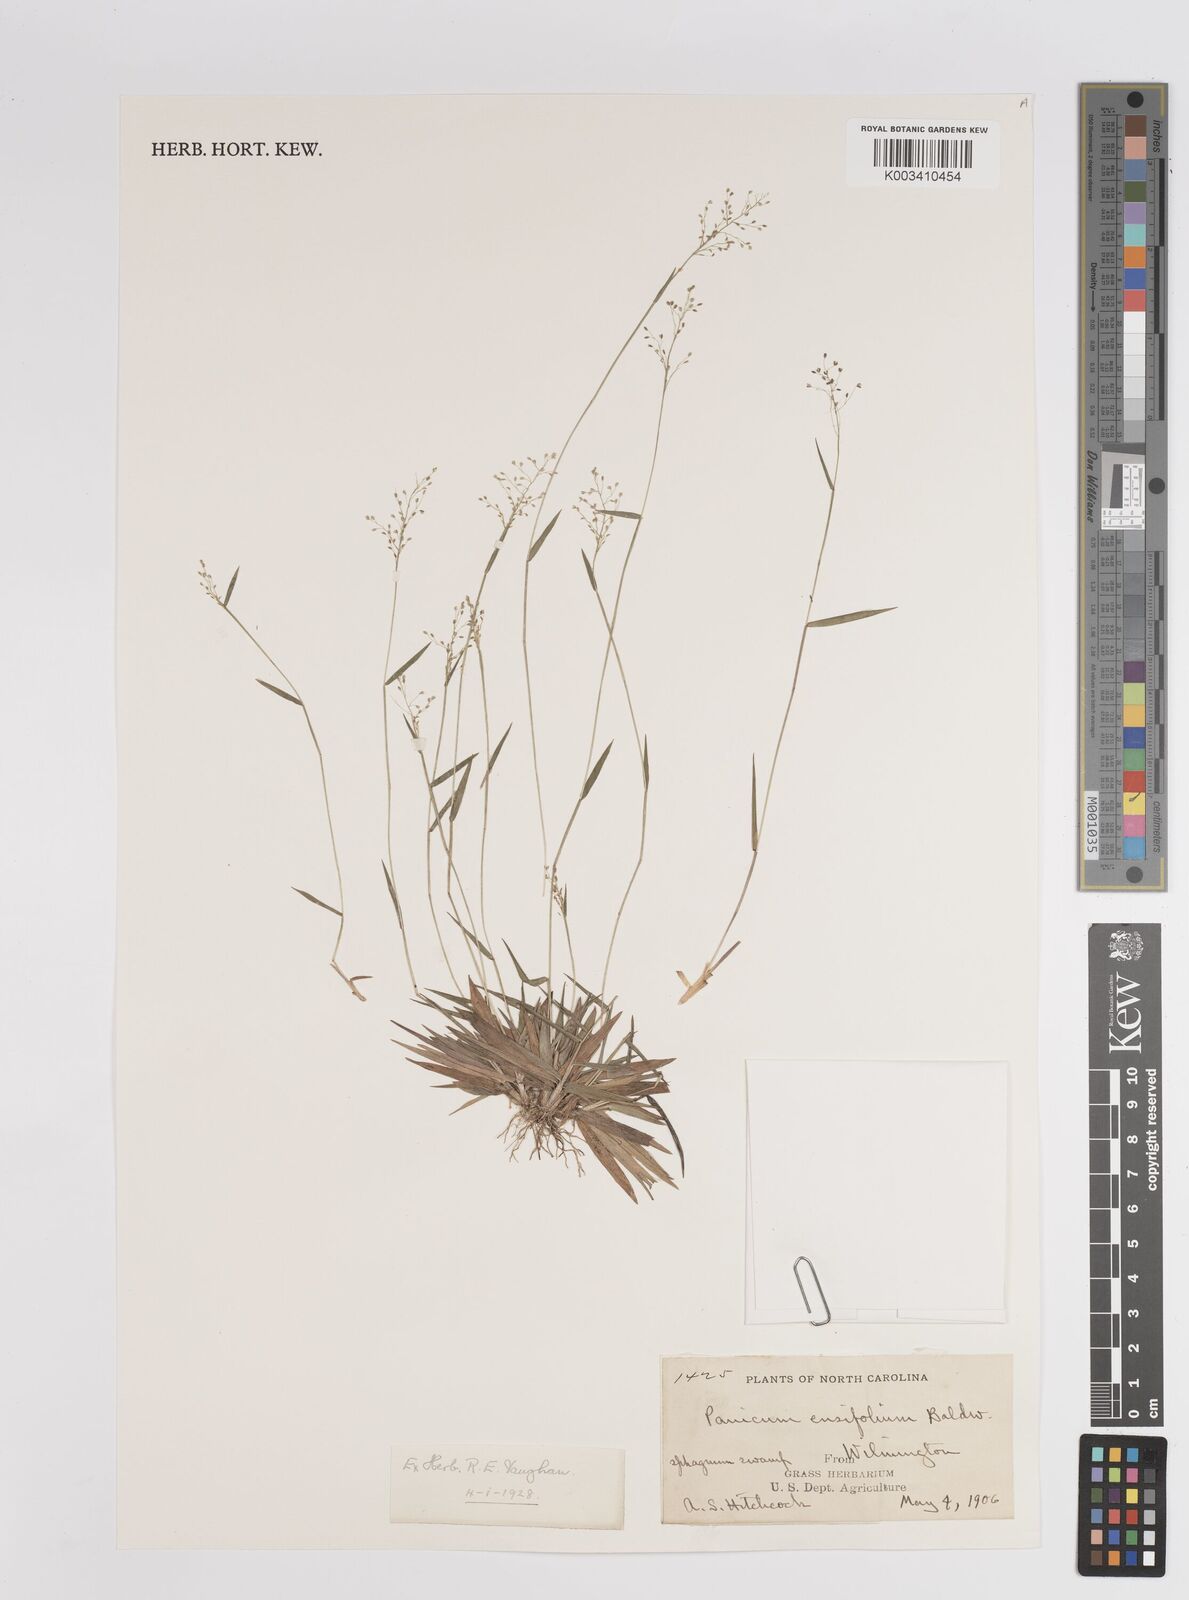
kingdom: Plantae
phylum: Tracheophyta
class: Liliopsida
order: Poales
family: Poaceae
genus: Dichanthelium
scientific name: Dichanthelium polyanthes
